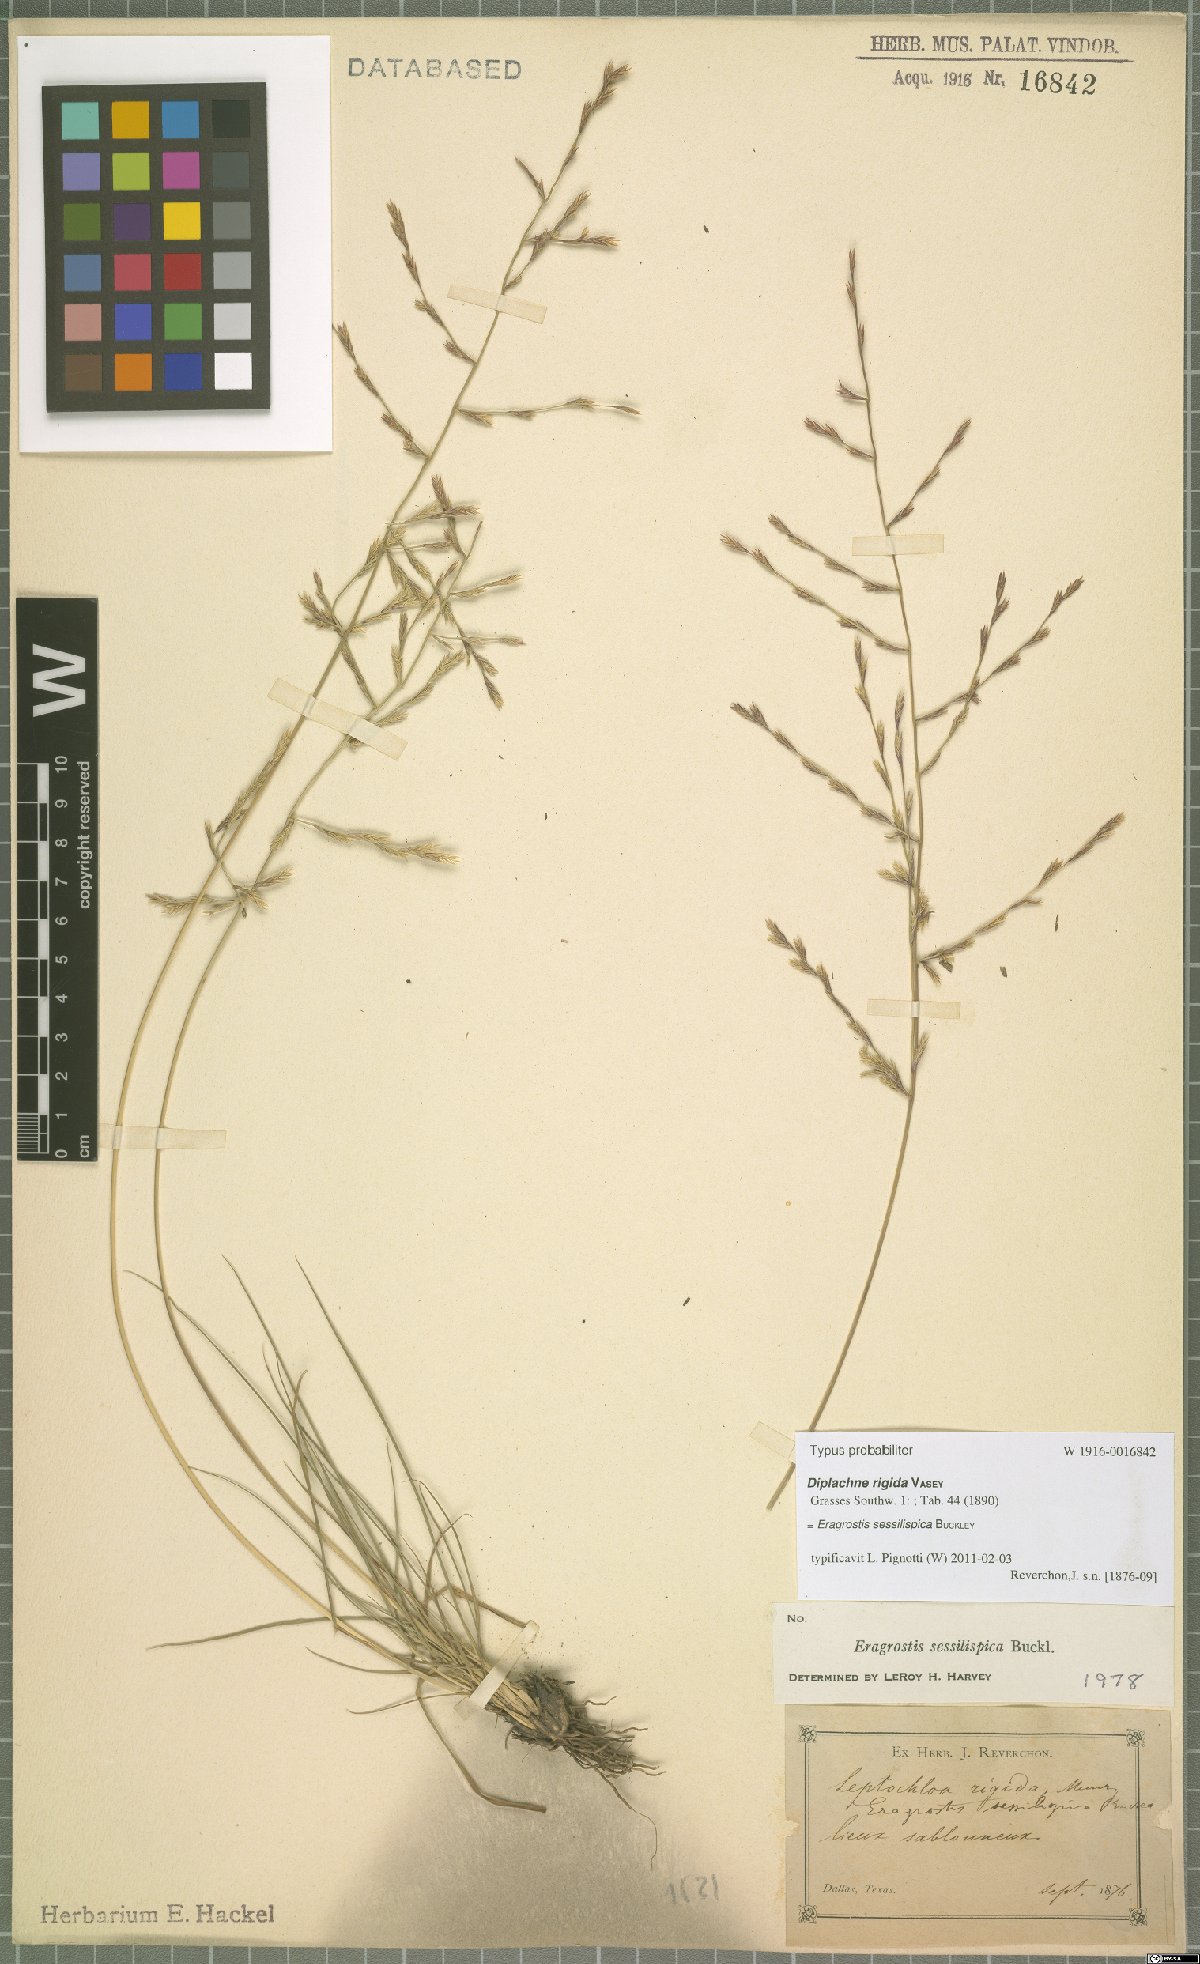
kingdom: Plantae
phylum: Tracheophyta
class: Liliopsida
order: Poales
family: Poaceae
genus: Eragrostis
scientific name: Eragrostis sessilispica
